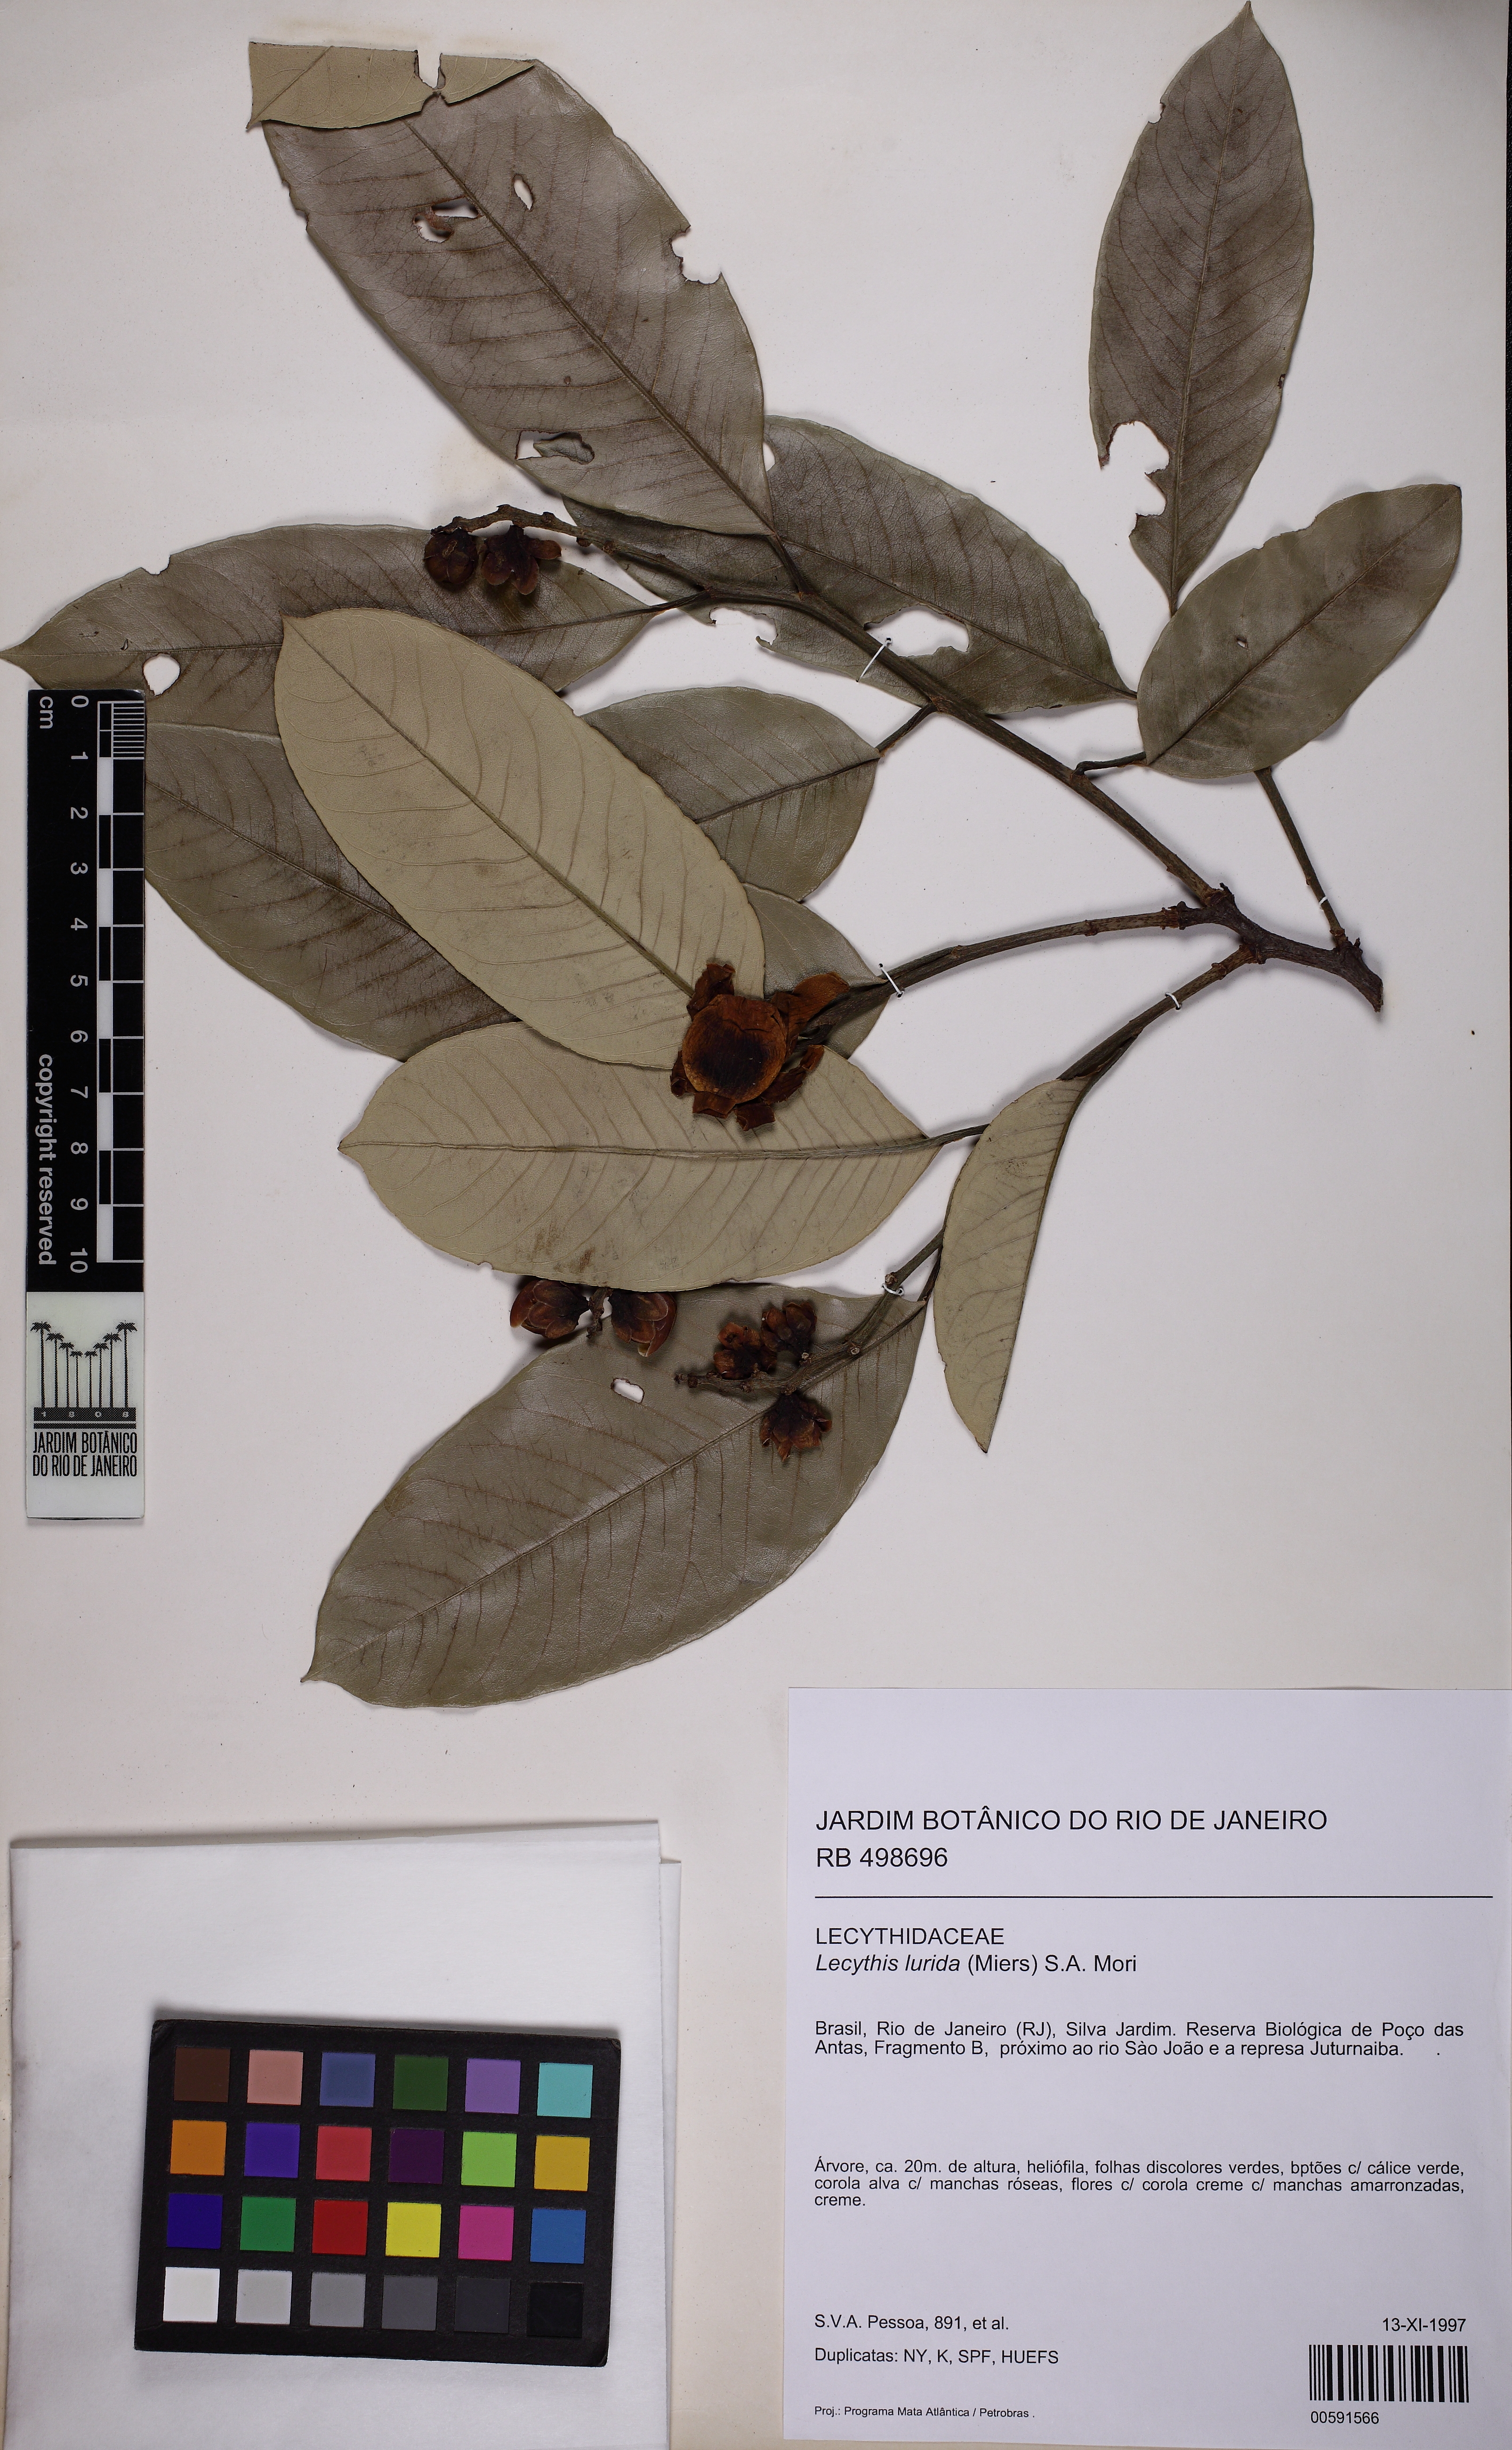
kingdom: Plantae
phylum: Tracheophyta
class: Magnoliopsida
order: Ericales
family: Lecythidaceae
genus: Lecythis
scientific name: Lecythis lurida
